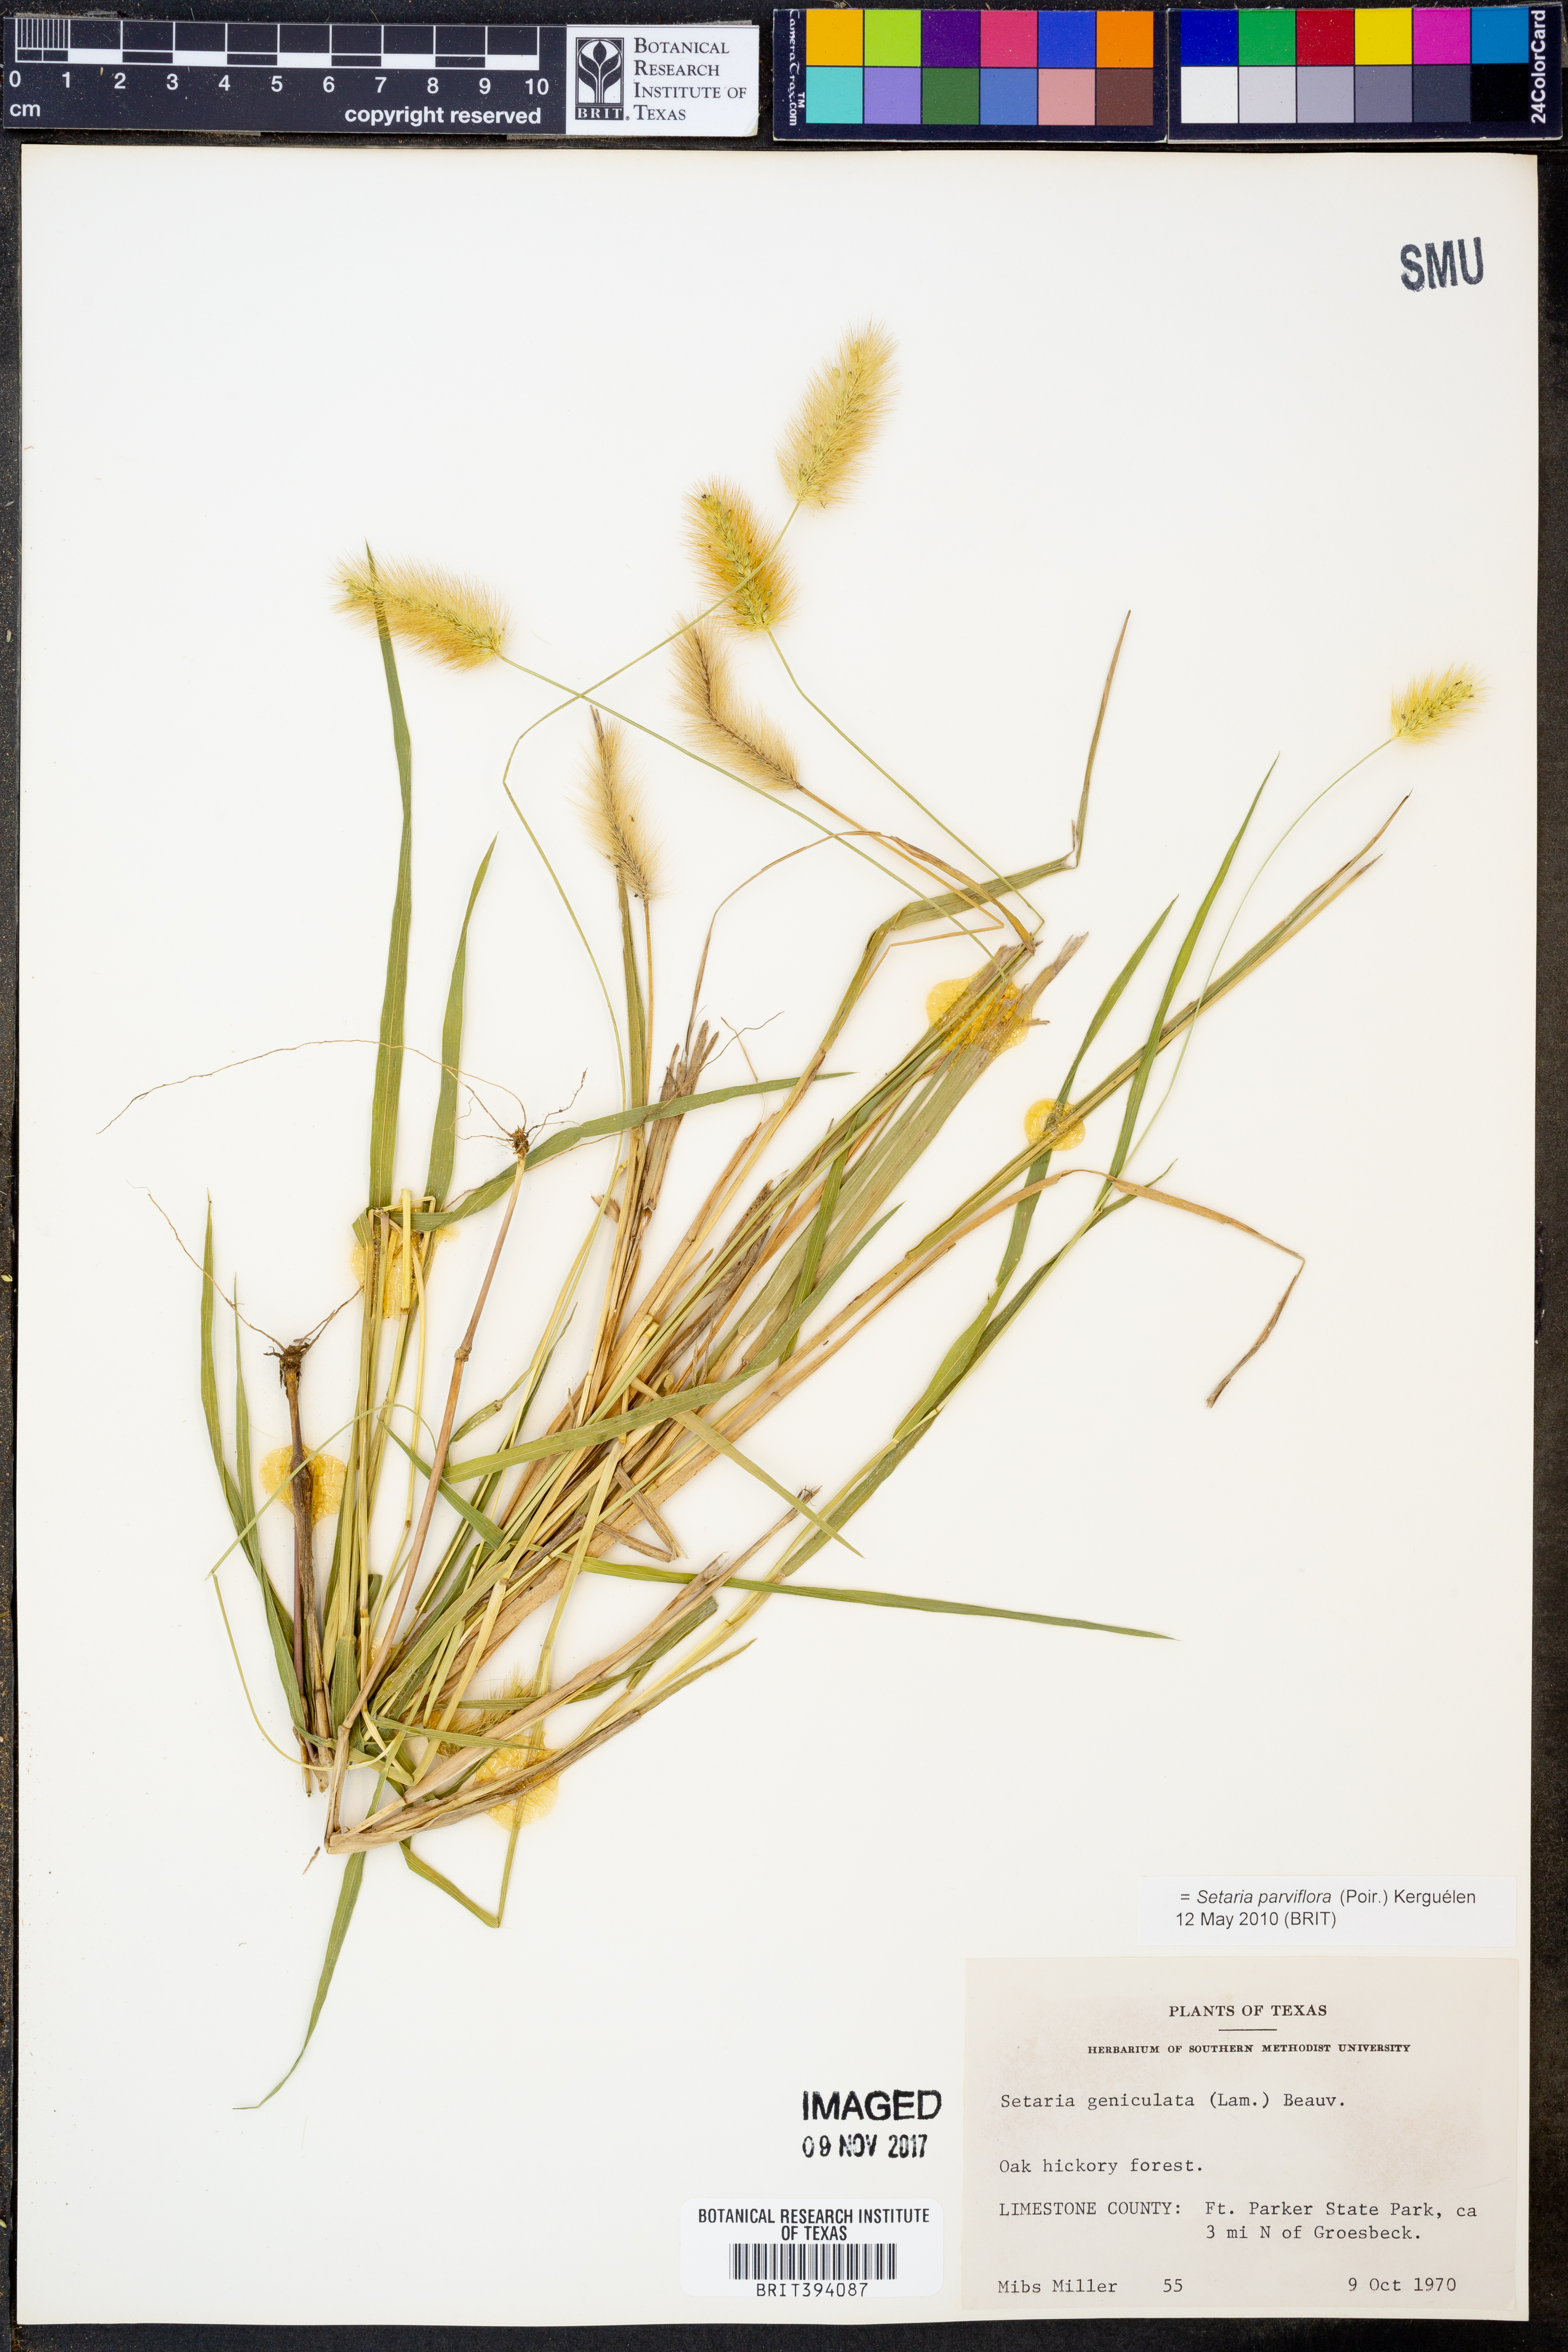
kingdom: Plantae
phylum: Tracheophyta
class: Liliopsida
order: Poales
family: Poaceae
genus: Setaria
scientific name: Setaria parviflora
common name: Knotroot bristle-grass
